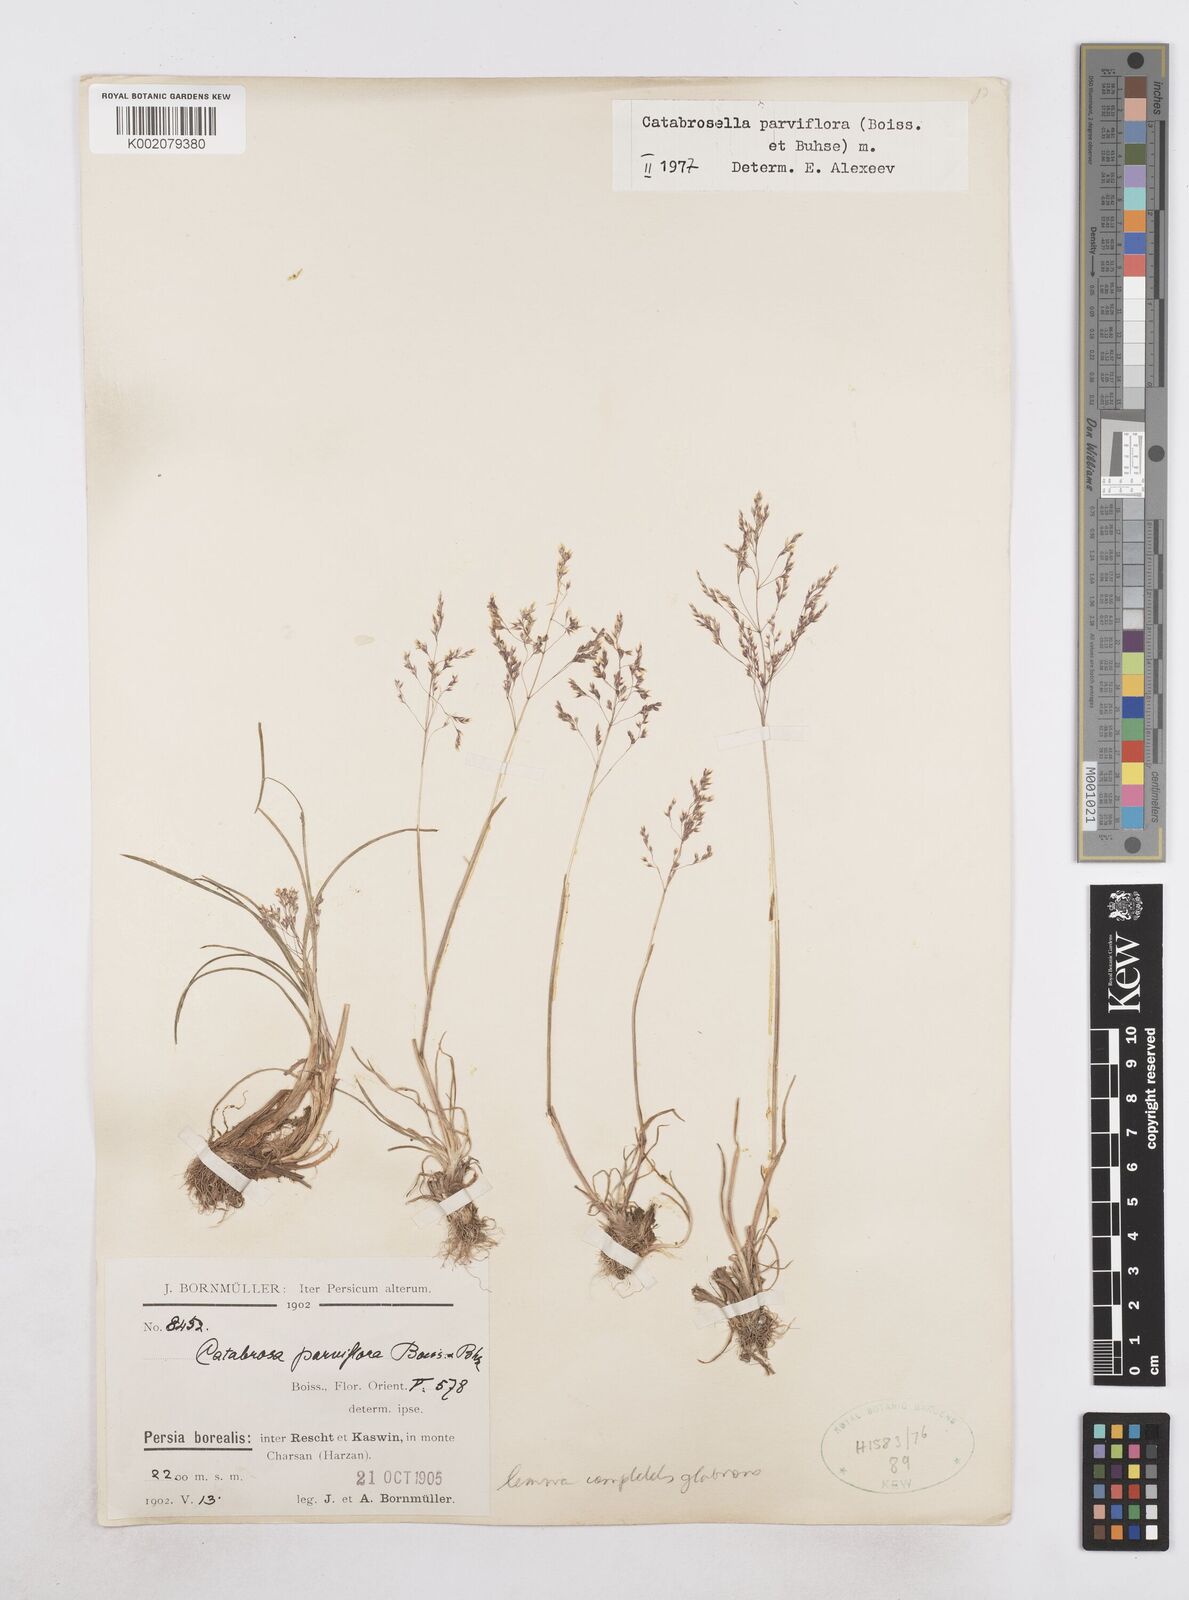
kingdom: Plantae
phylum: Tracheophyta
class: Liliopsida
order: Poales
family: Poaceae
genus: Catabrosella
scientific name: Catabrosella humilis
